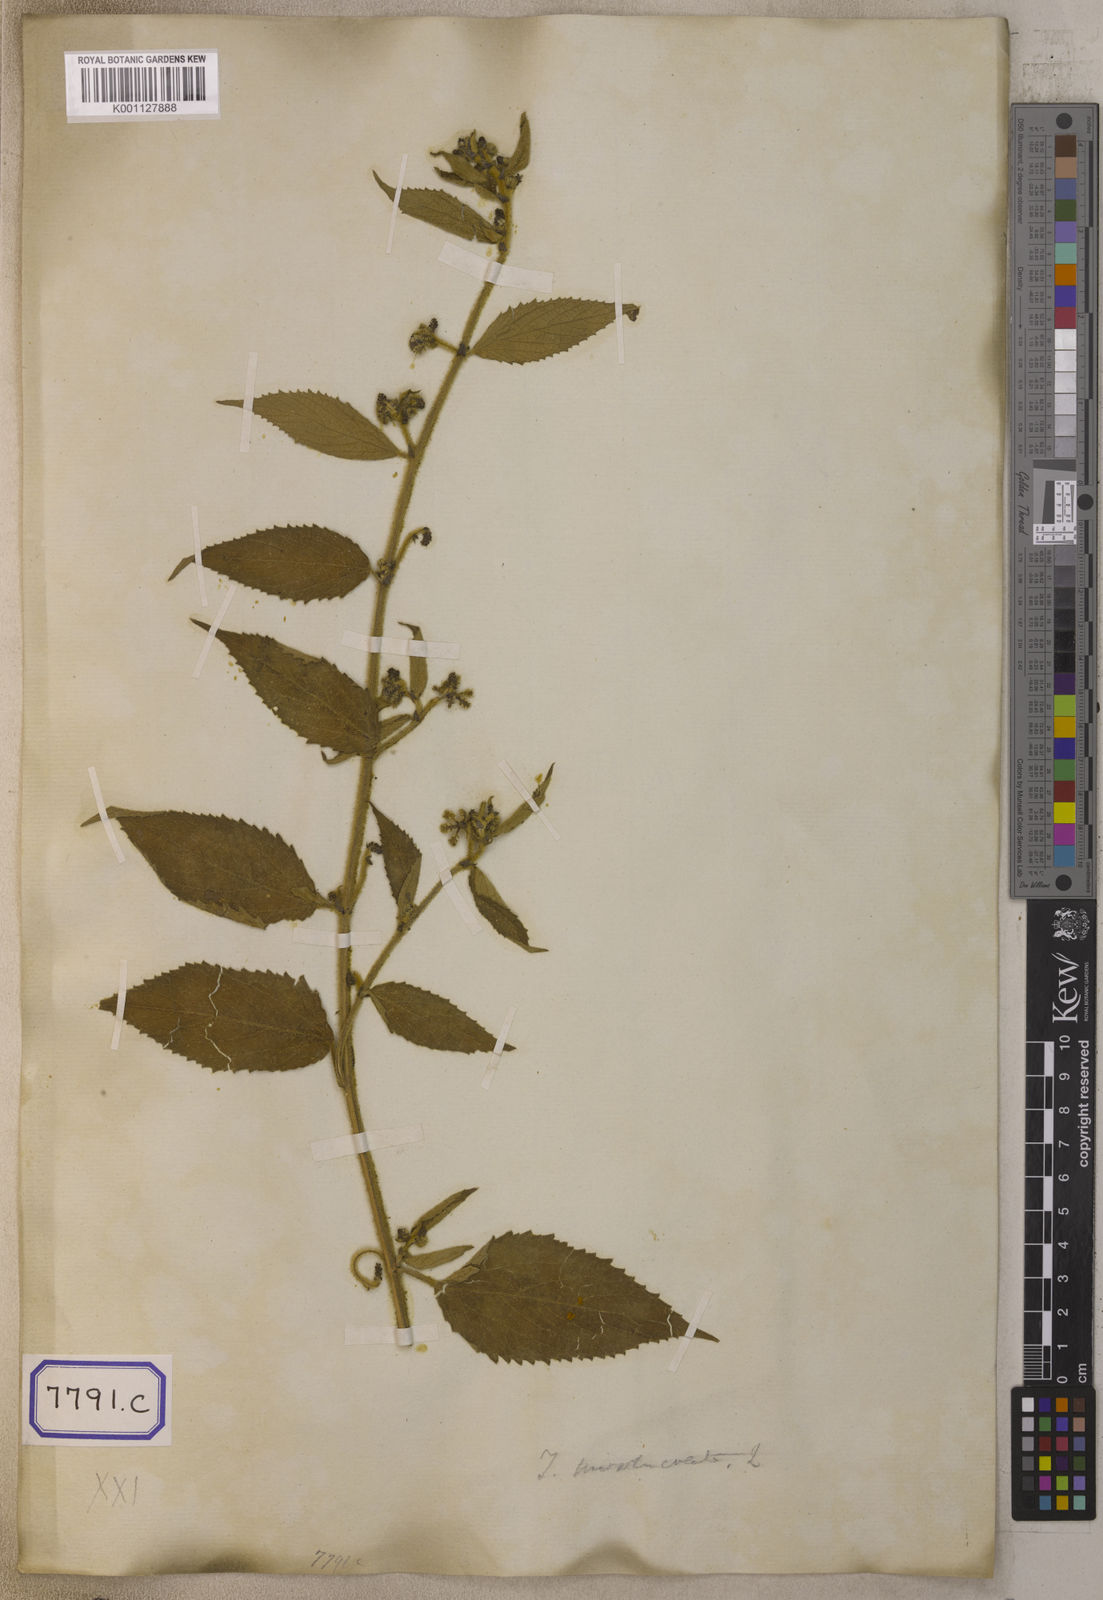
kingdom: Plantae
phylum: Tracheophyta
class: Magnoliopsida
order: Malpighiales
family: Euphorbiaceae
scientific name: Euphorbiaceae
